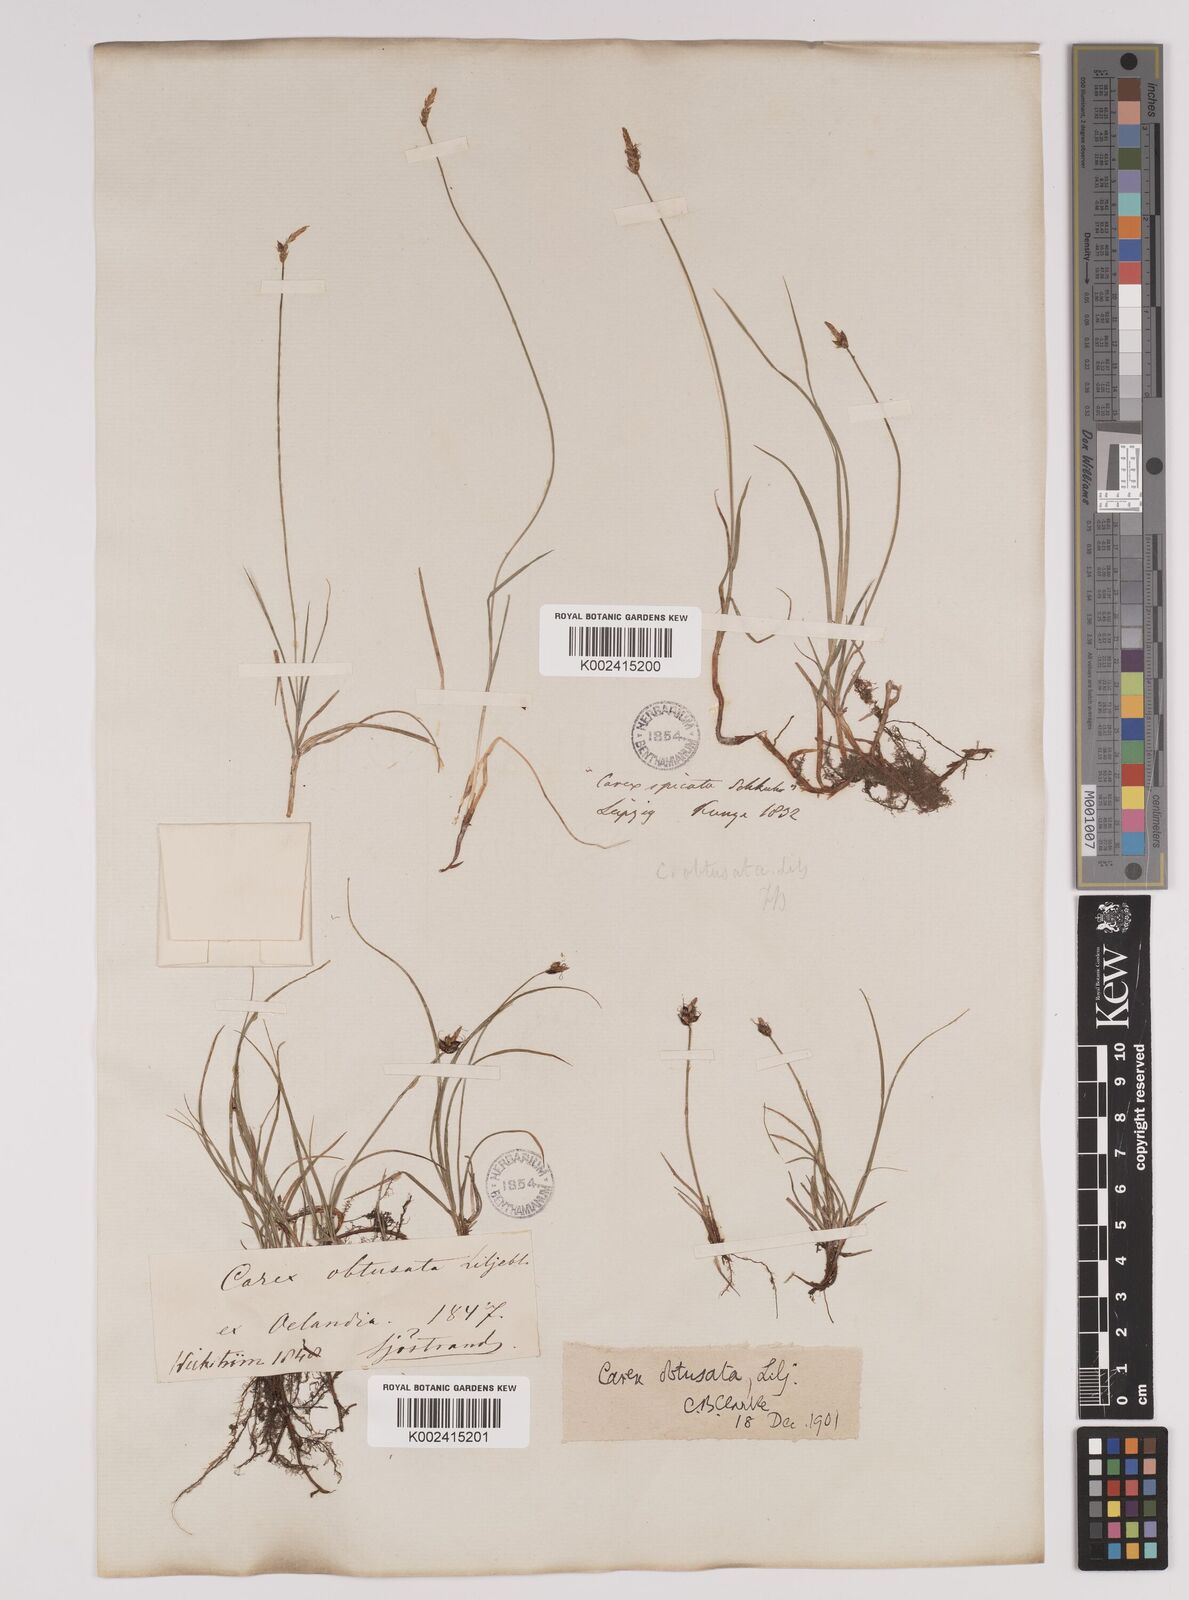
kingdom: Plantae
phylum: Tracheophyta
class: Liliopsida
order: Poales
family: Cyperaceae
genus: Carex
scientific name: Carex obtusata
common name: Blunt sedge
